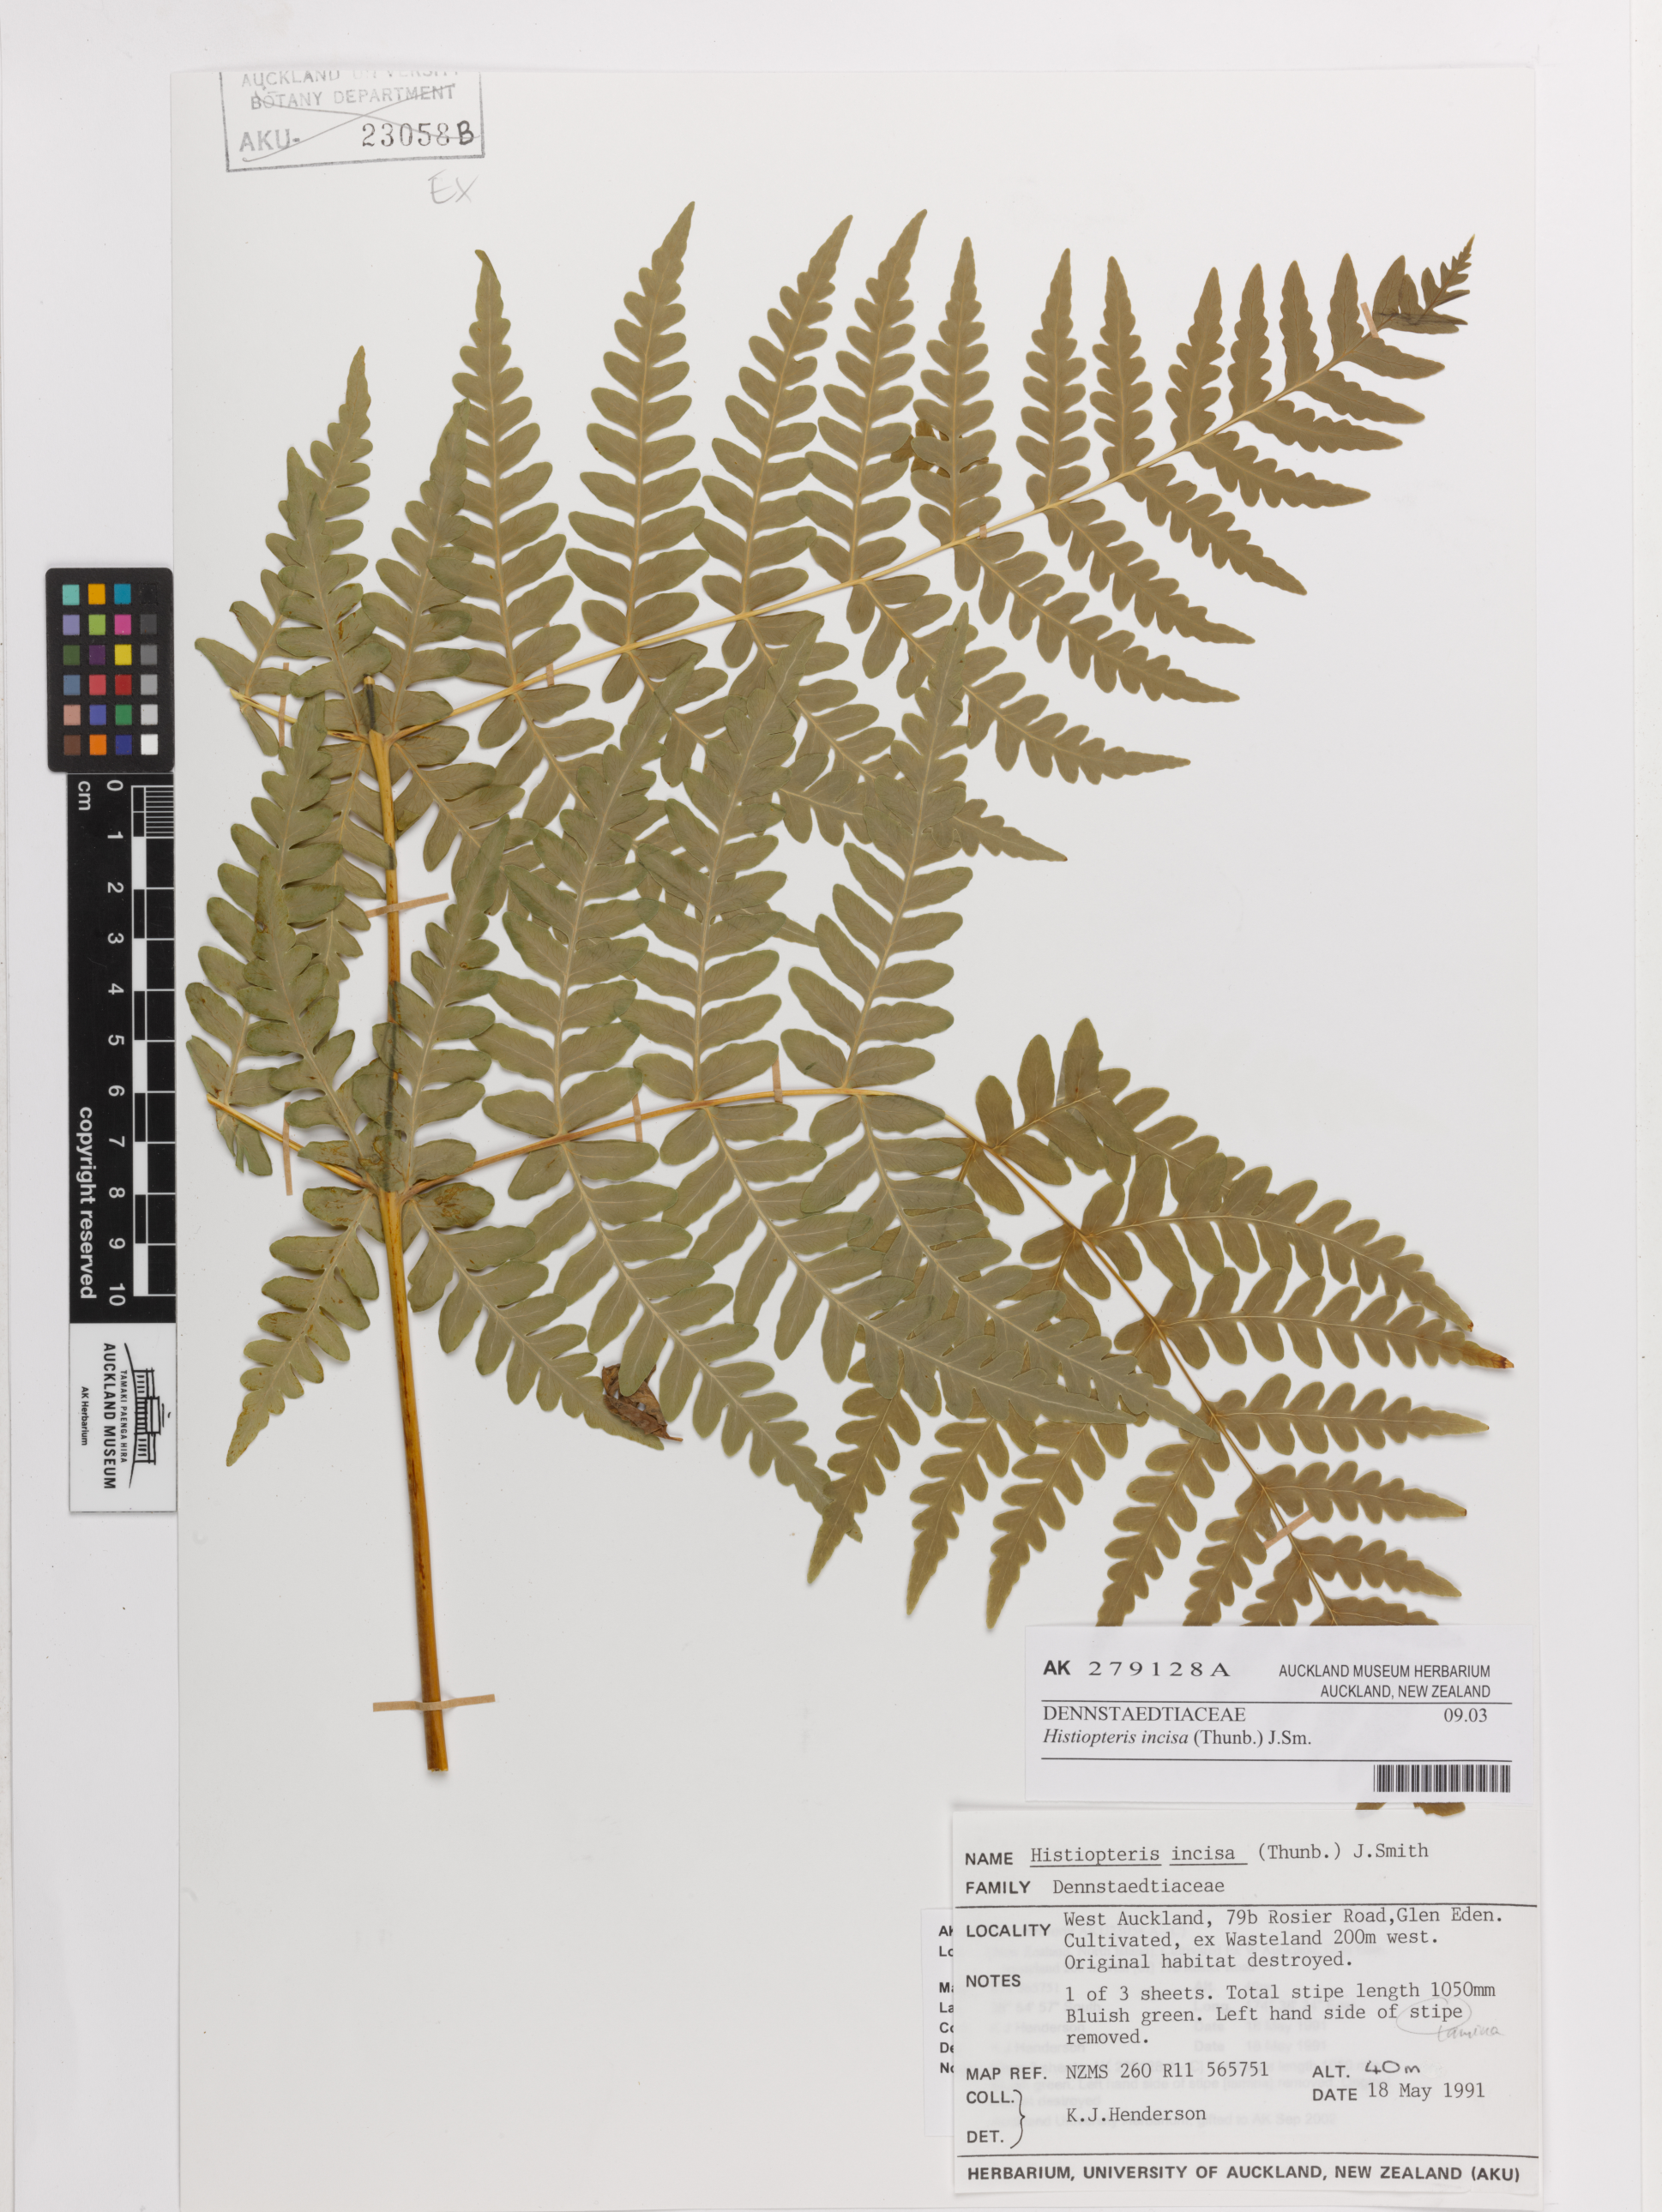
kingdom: Plantae
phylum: Tracheophyta
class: Polypodiopsida
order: Polypodiales
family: Dennstaedtiaceae
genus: Histiopteris
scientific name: Histiopteris incisa
